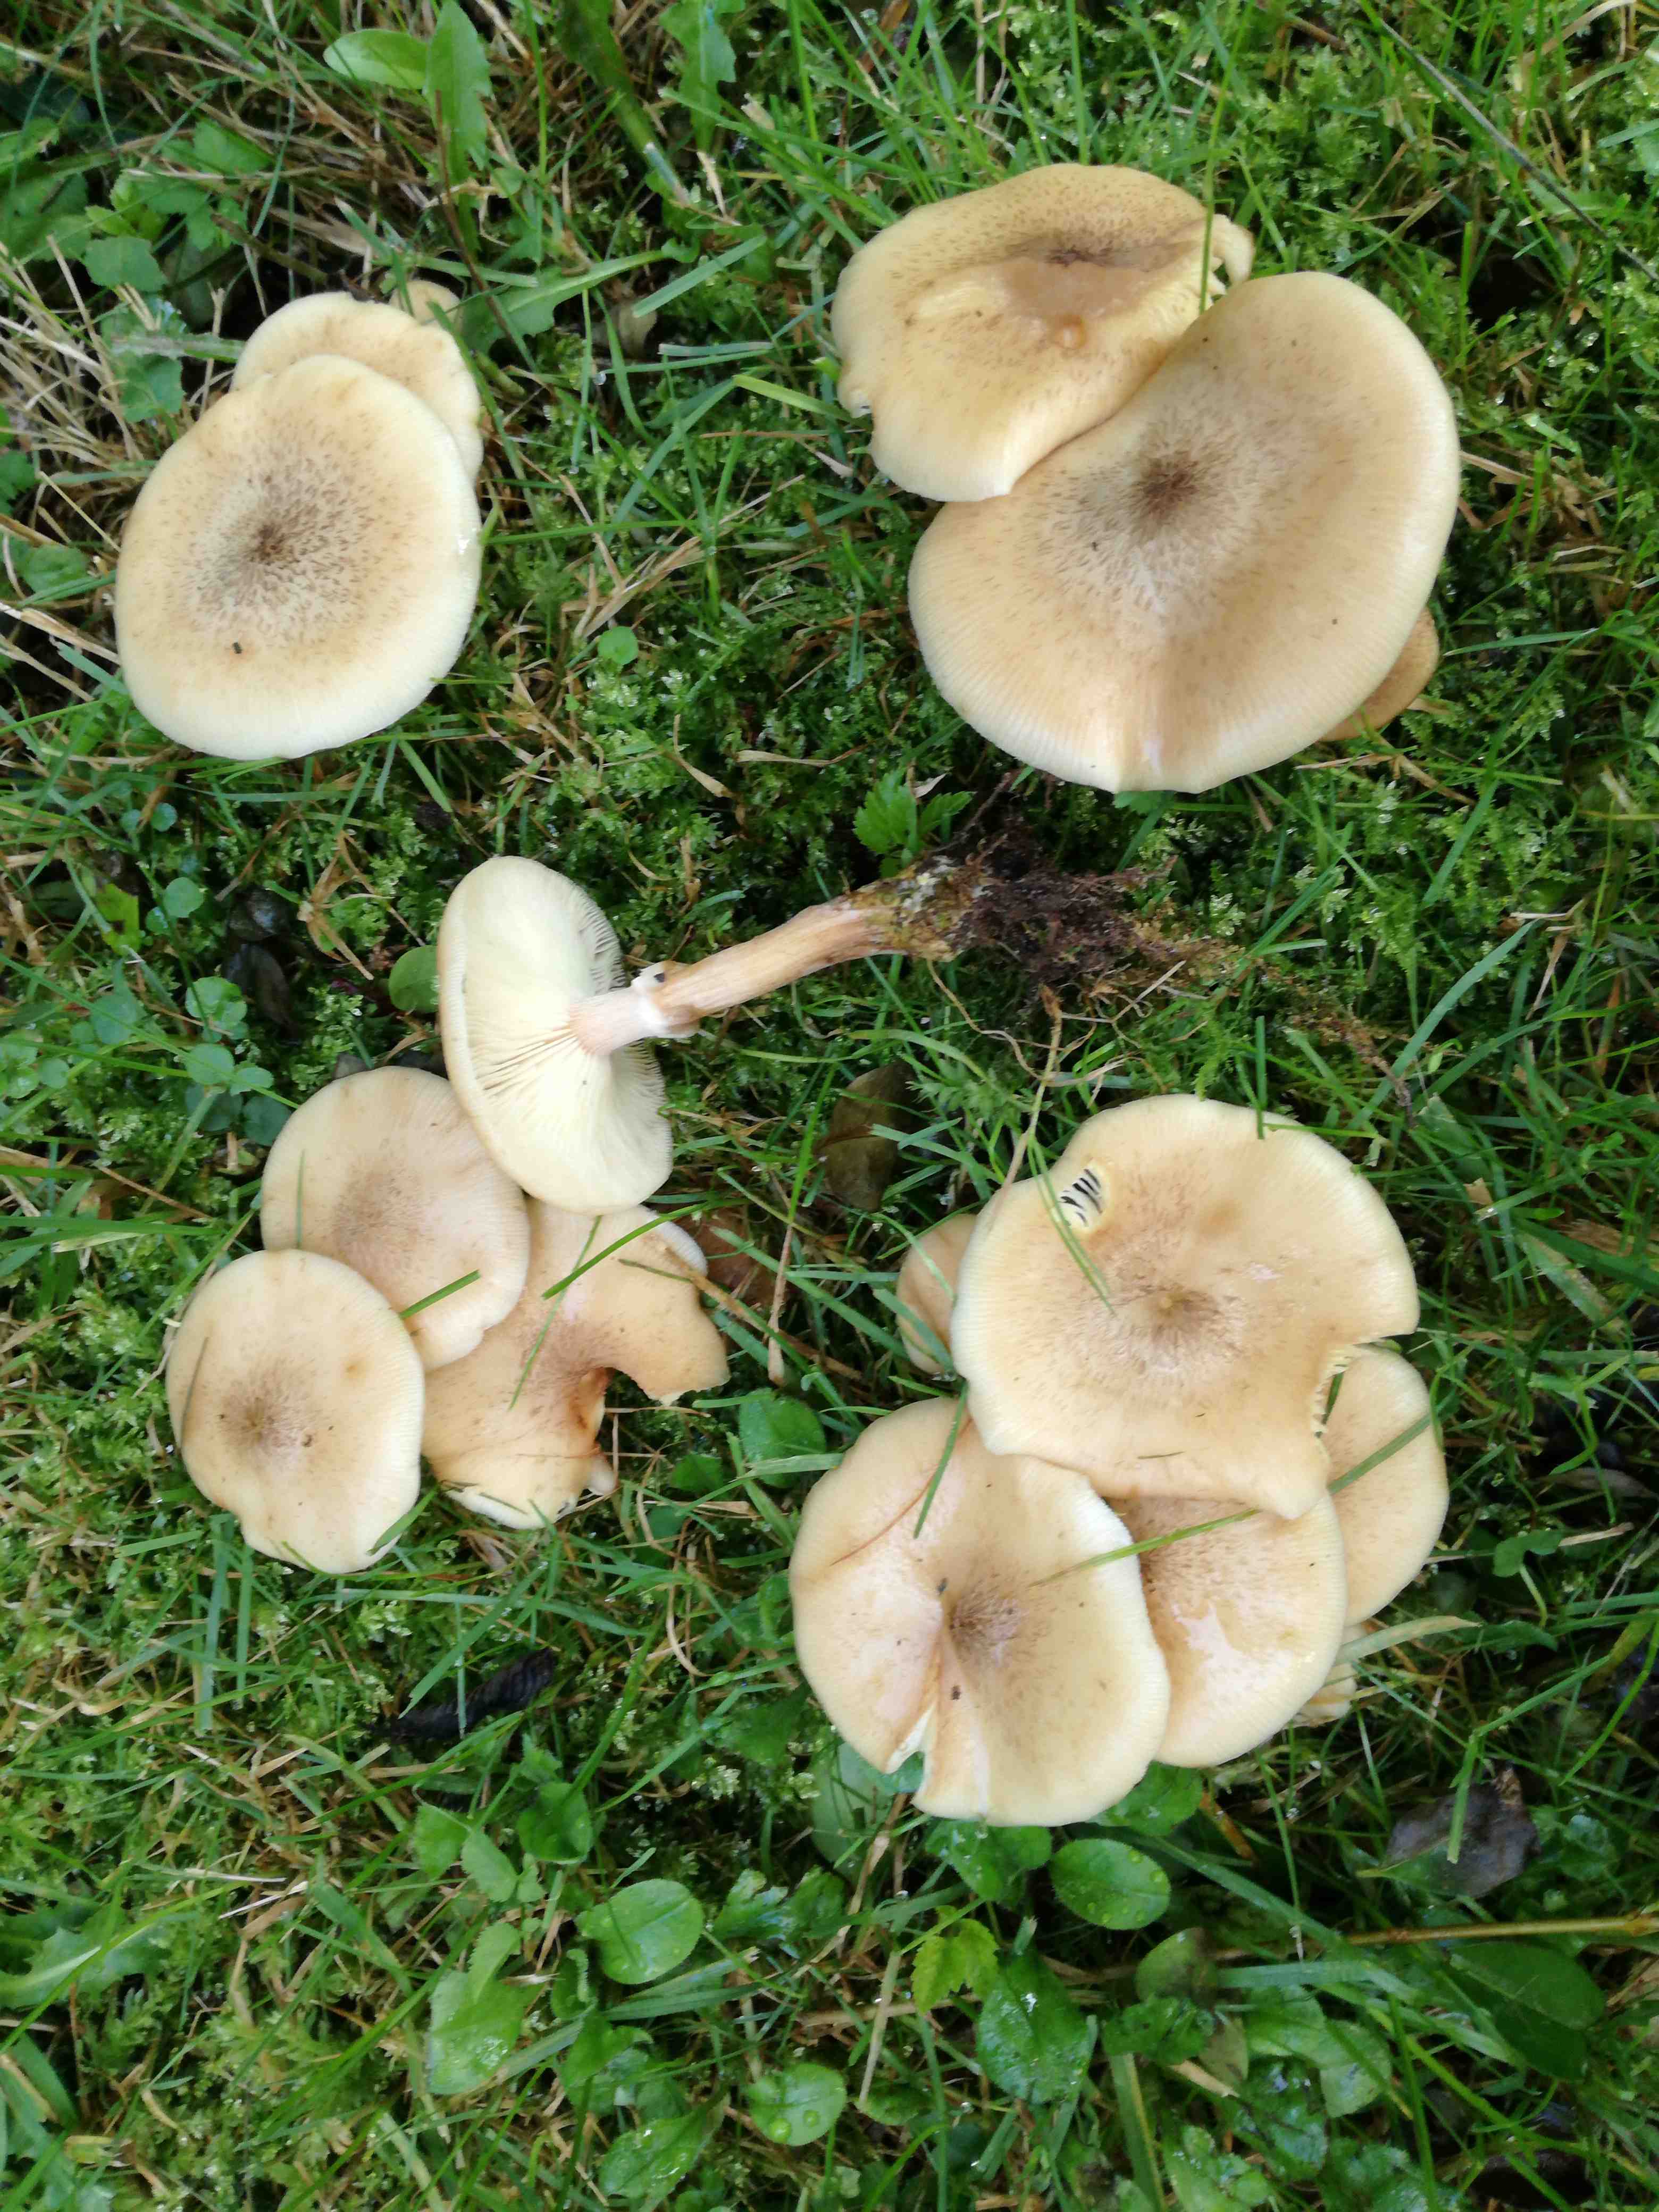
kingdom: Fungi
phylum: Basidiomycota
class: Agaricomycetes
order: Agaricales
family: Physalacriaceae
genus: Armillaria
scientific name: Armillaria lutea
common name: køllestokket honningsvamp
